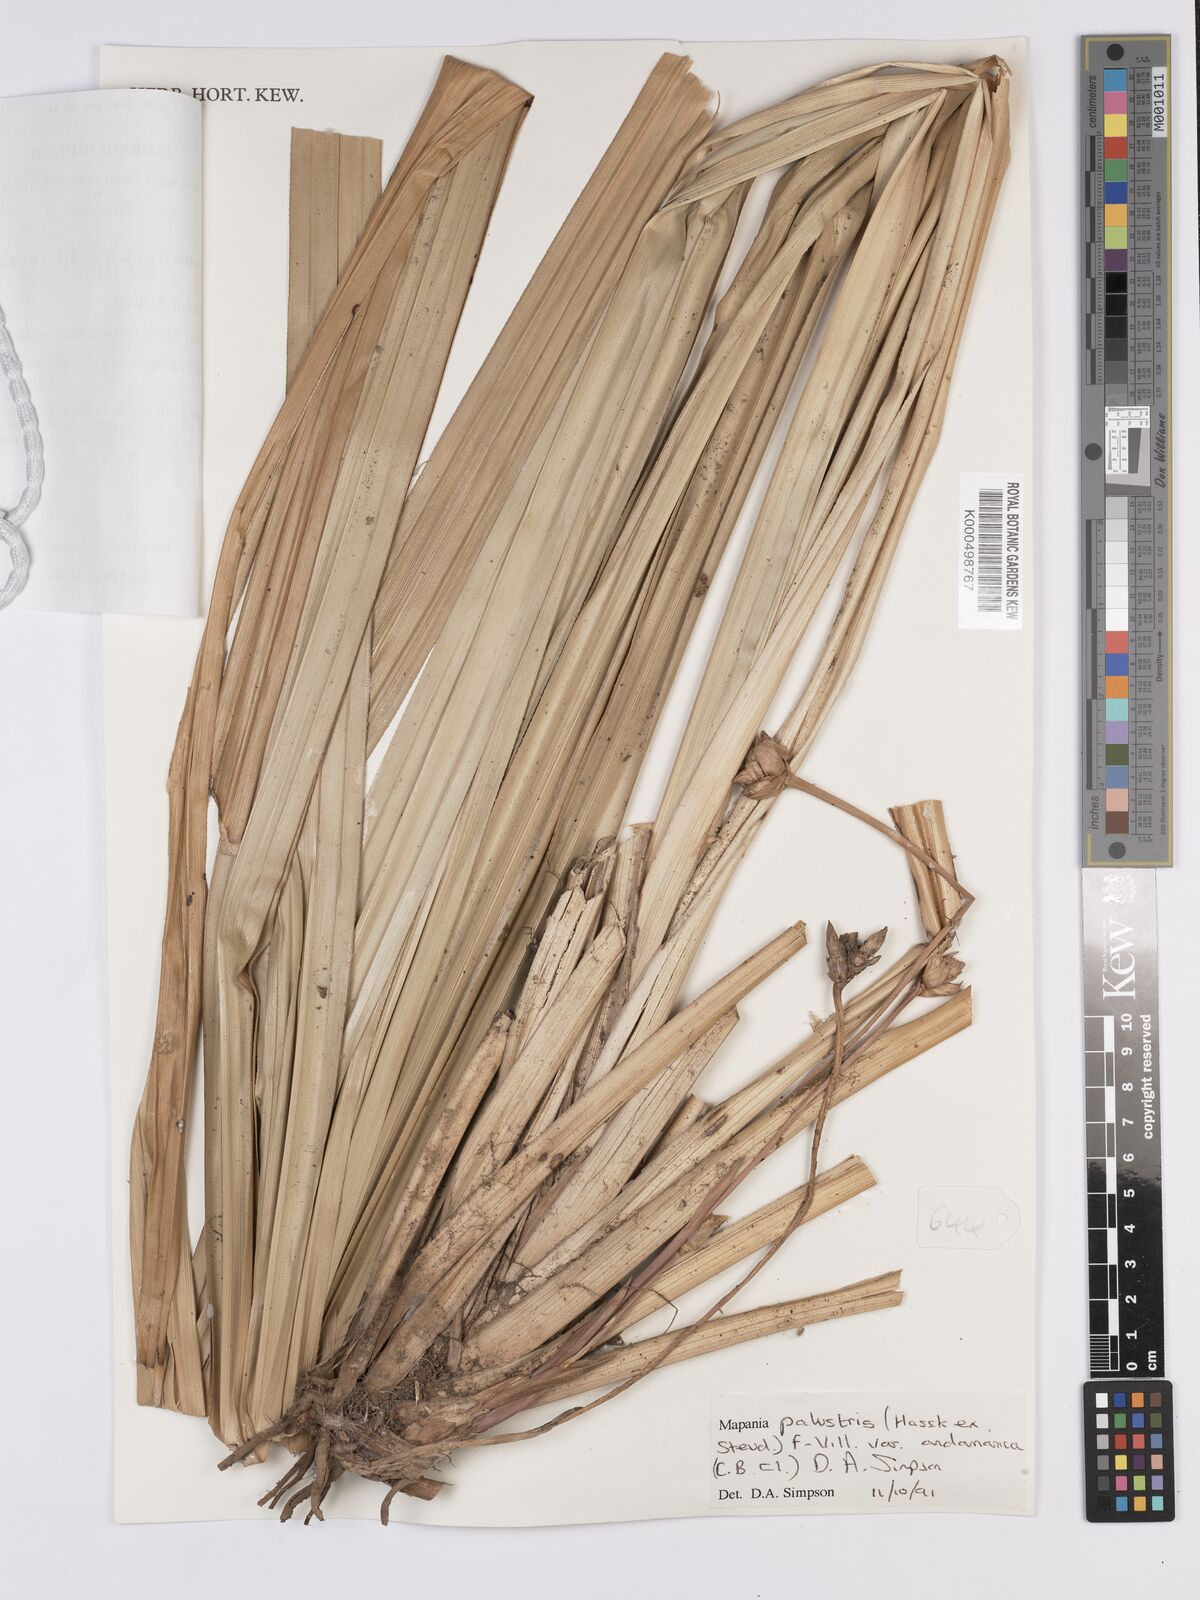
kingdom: Plantae
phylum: Tracheophyta
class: Liliopsida
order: Poales
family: Cyperaceae
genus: Mapania
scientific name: Mapania palustris
